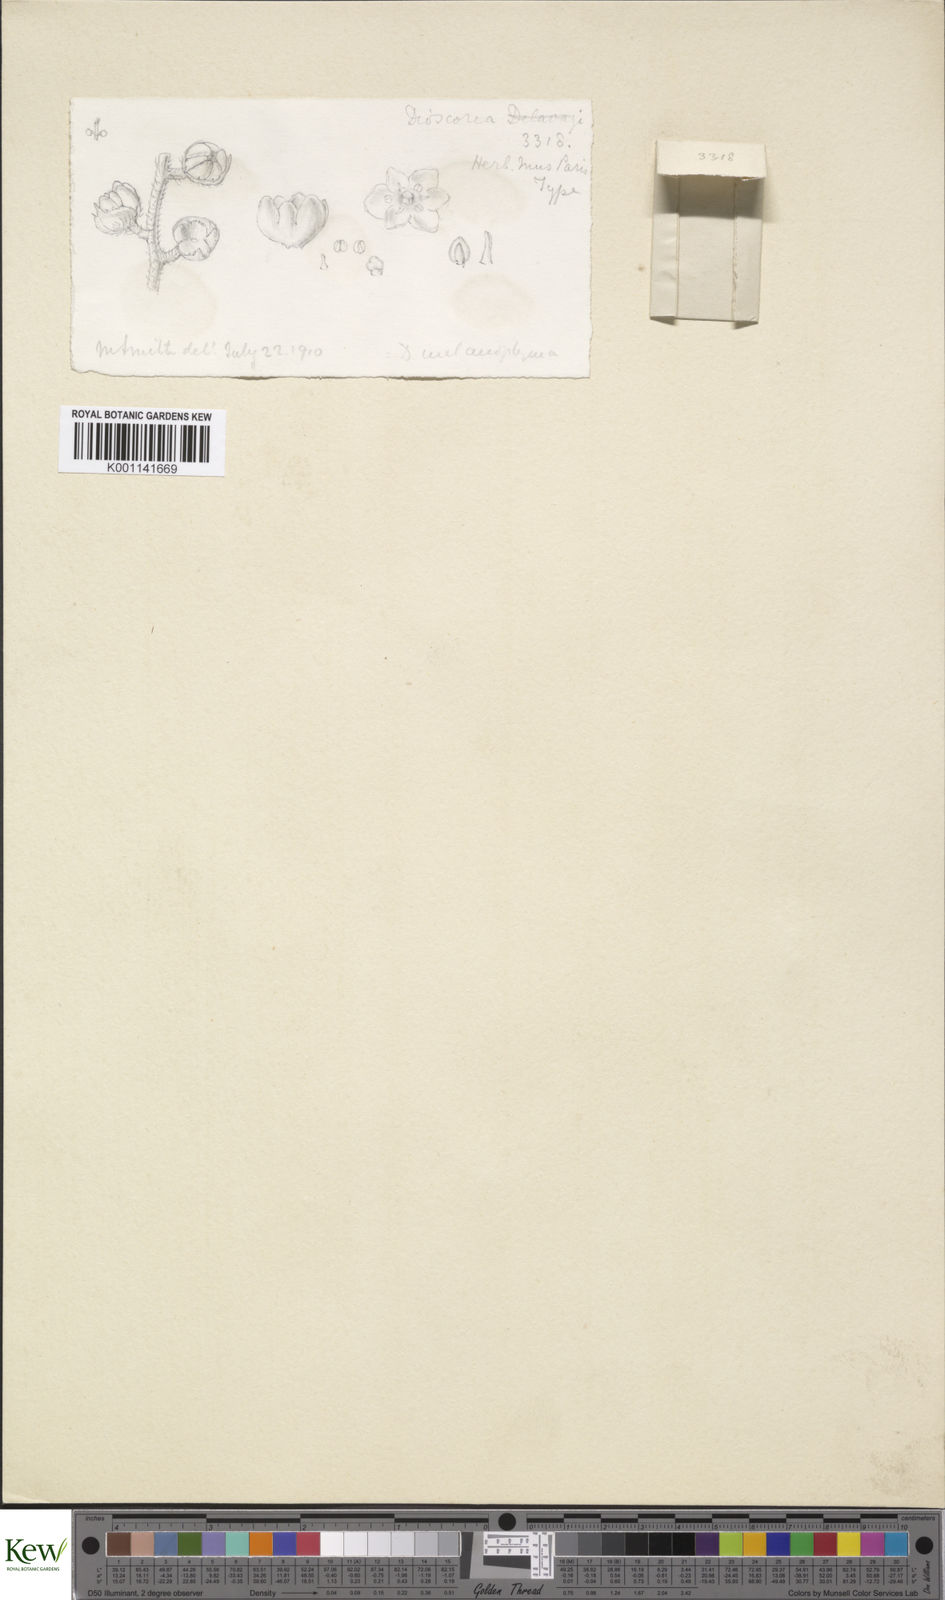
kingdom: Plantae
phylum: Tracheophyta
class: Liliopsida
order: Dioscoreales
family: Dioscoreaceae
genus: Dioscorea
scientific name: Dioscorea melanophyma
